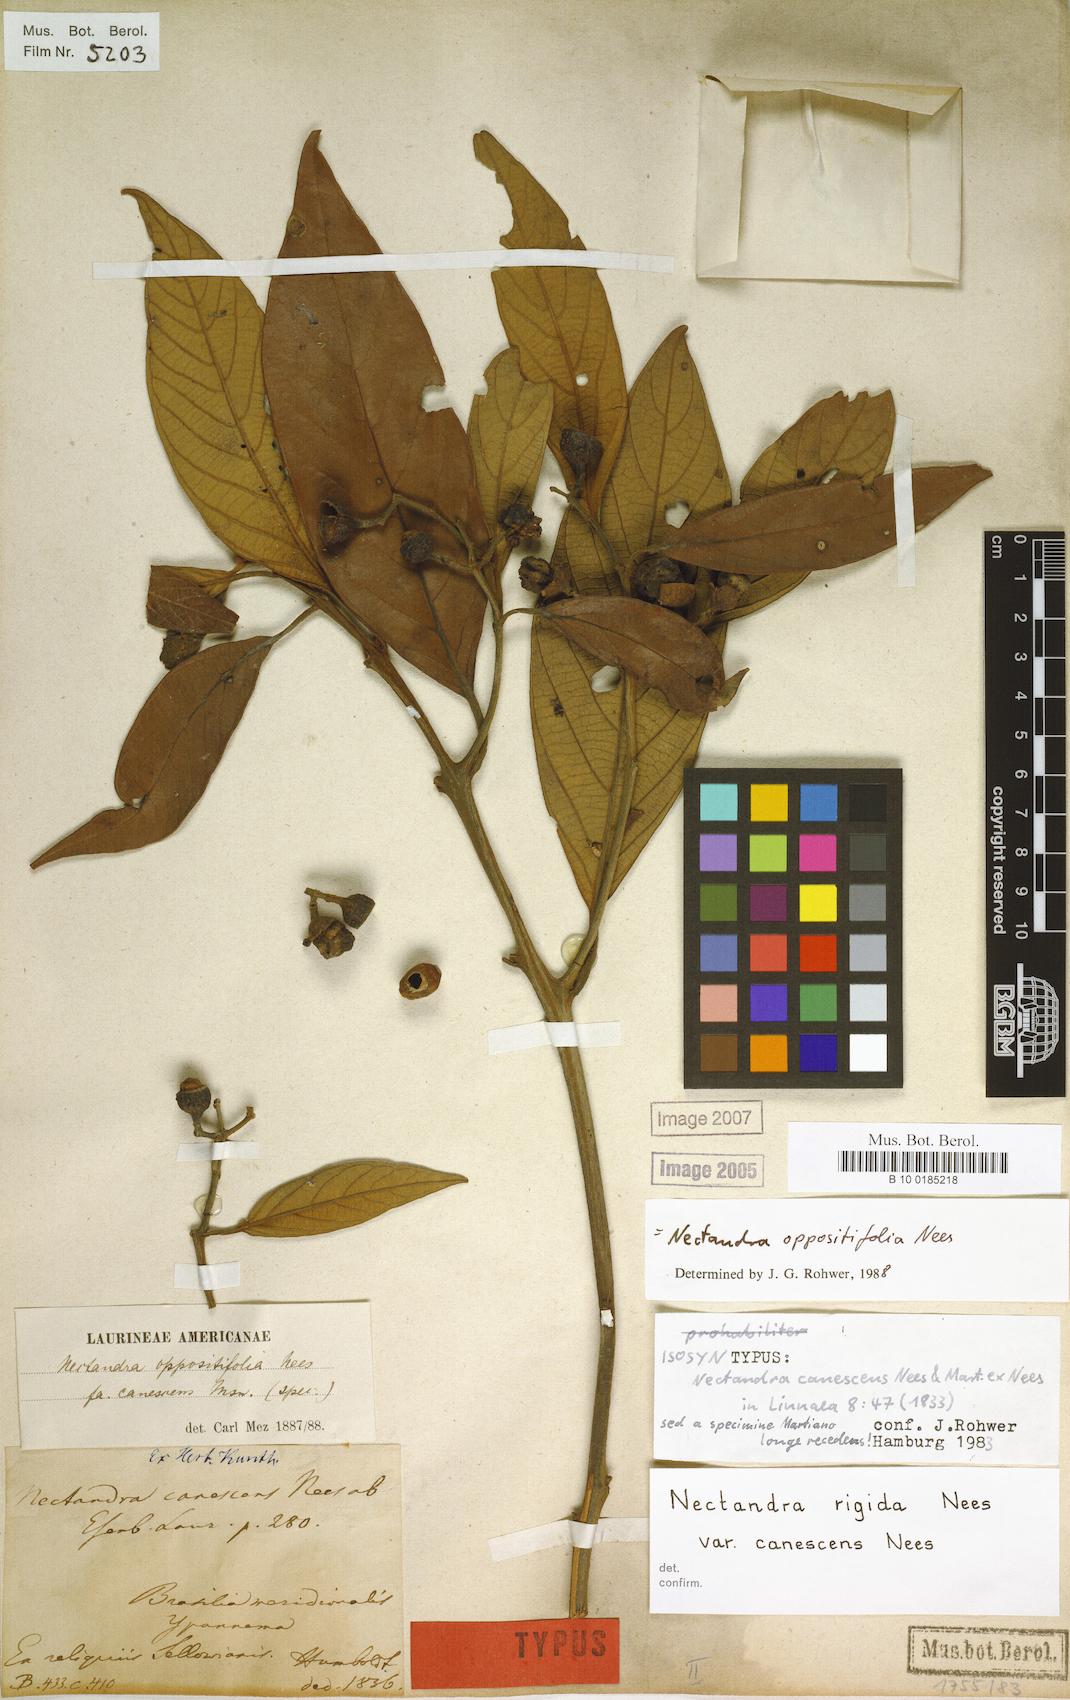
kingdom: Plantae
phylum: Tracheophyta
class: Magnoliopsida
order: Laurales
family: Lauraceae
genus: Nectandra
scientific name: Nectandra oppositifolia
